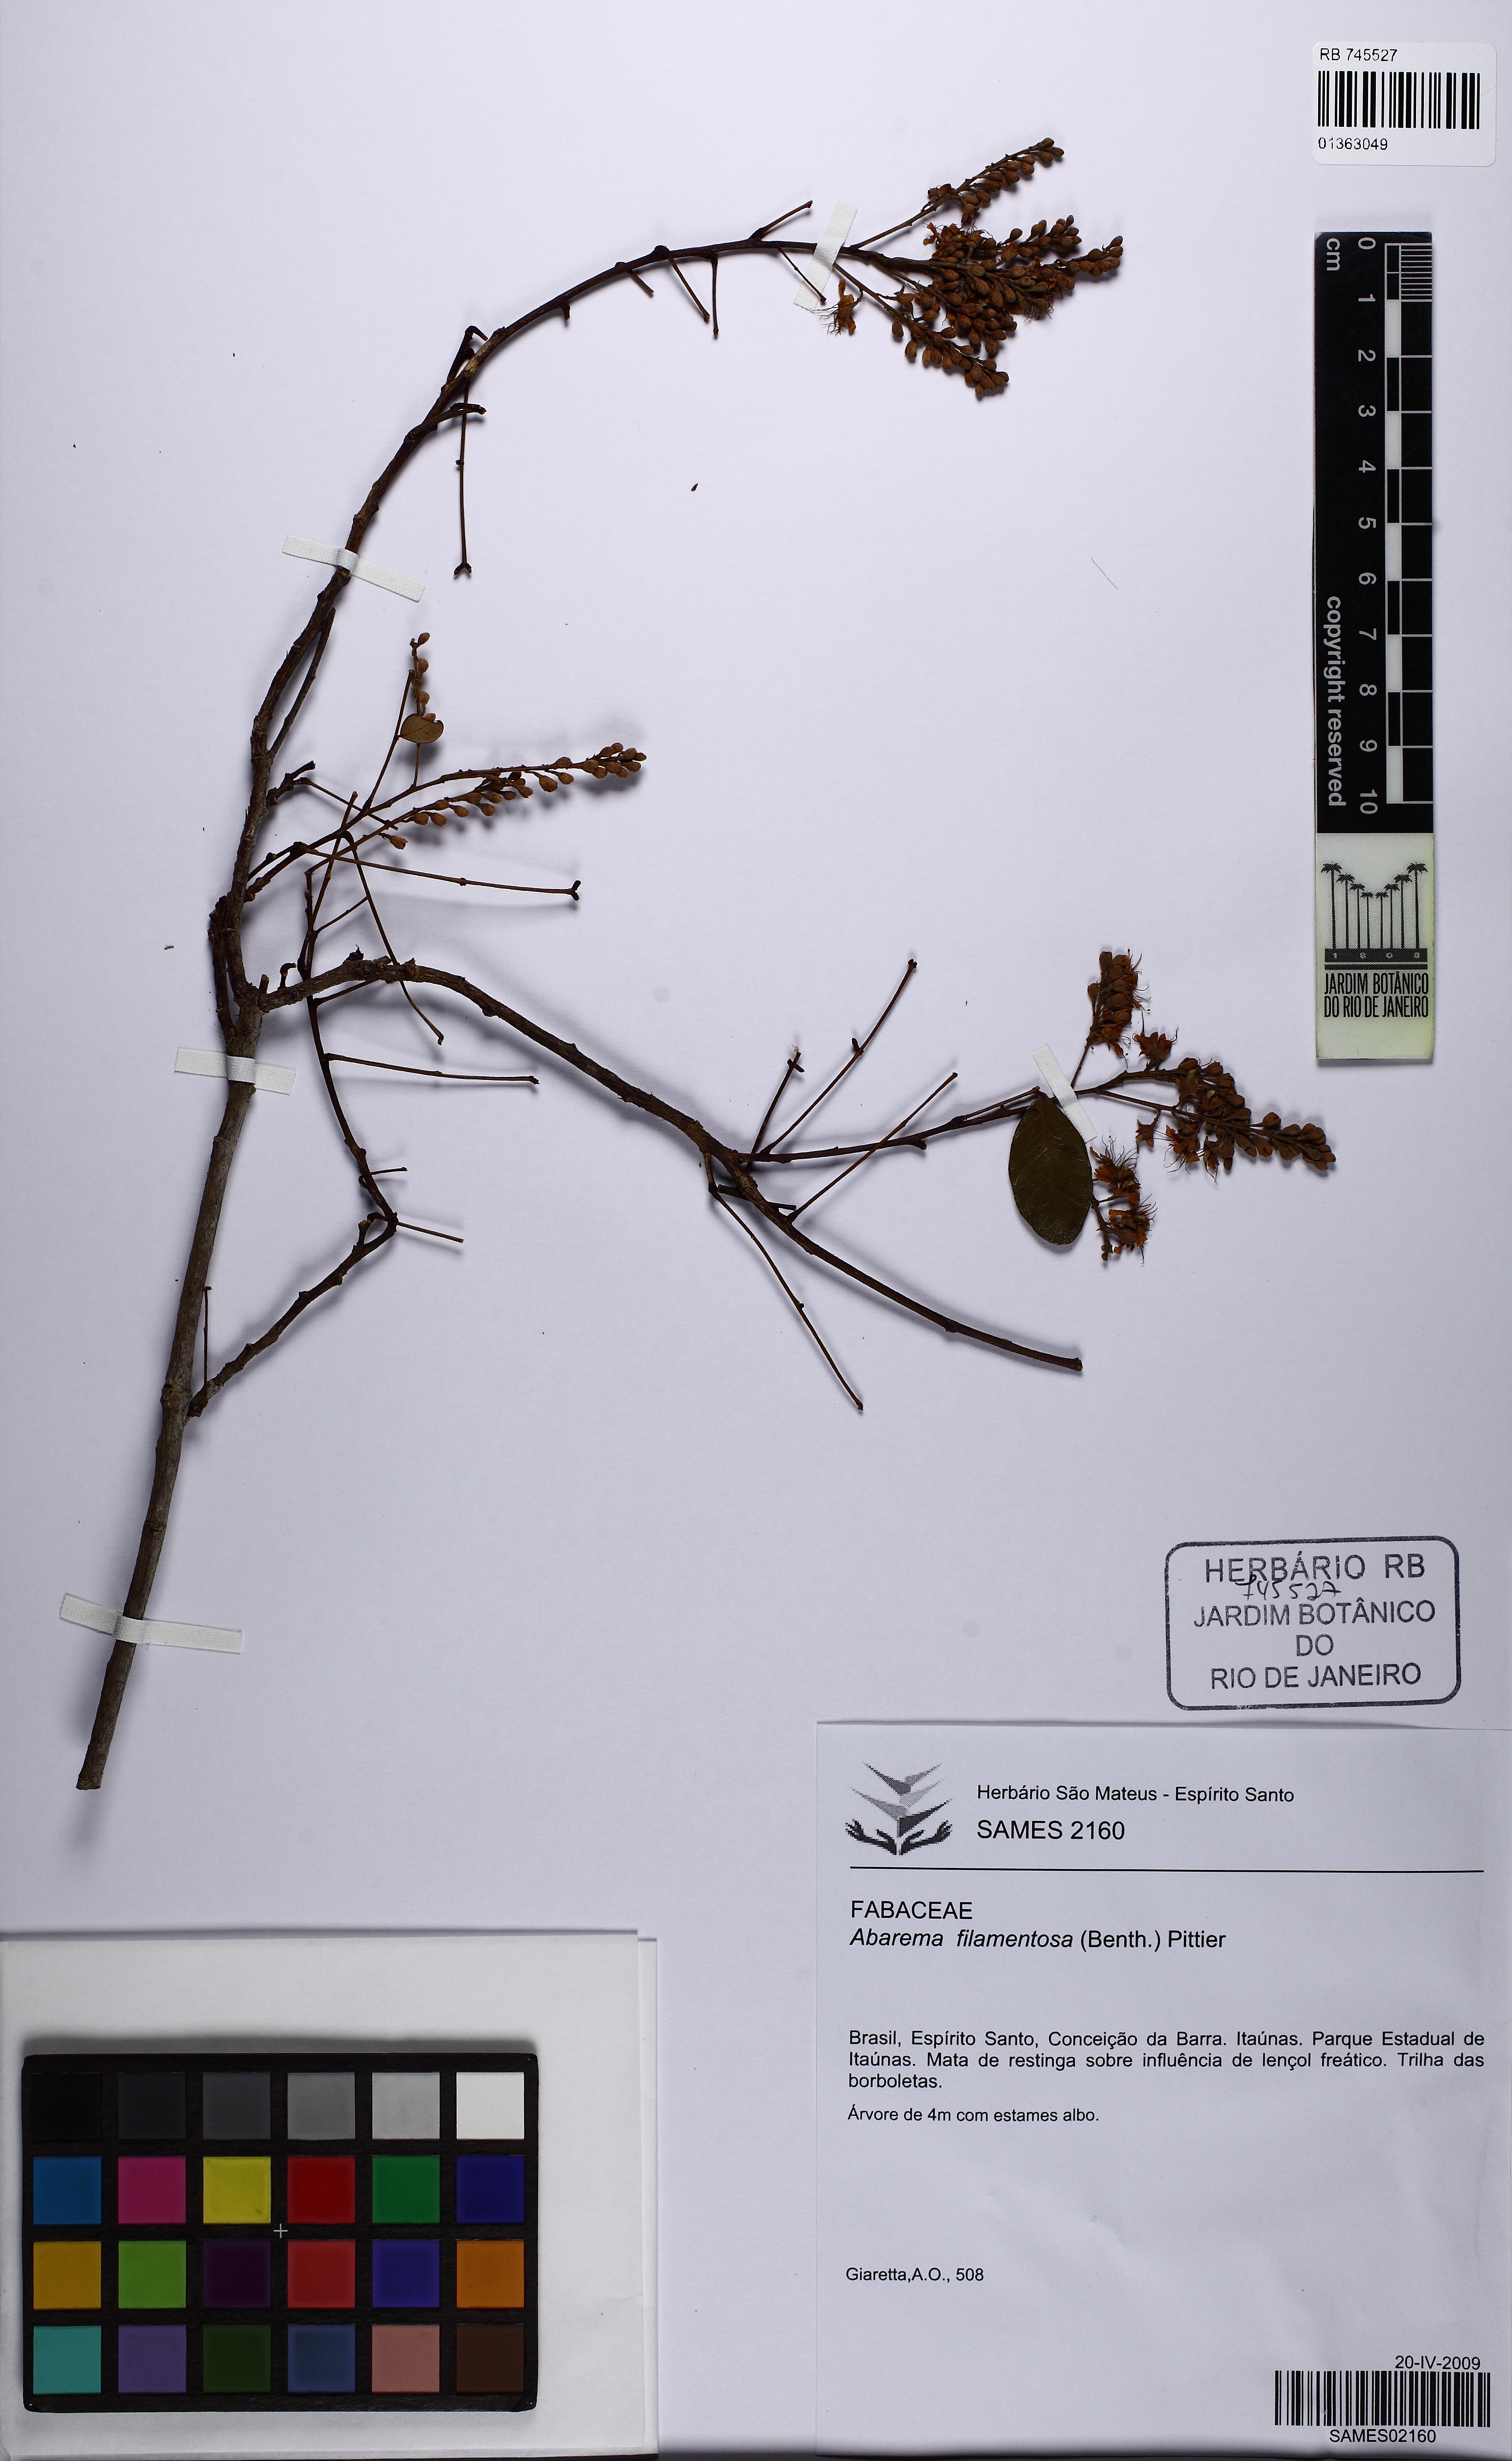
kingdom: Plantae
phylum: Tracheophyta
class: Magnoliopsida
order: Fabales
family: Fabaceae
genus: Jupunba
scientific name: Jupunba filamentosa
